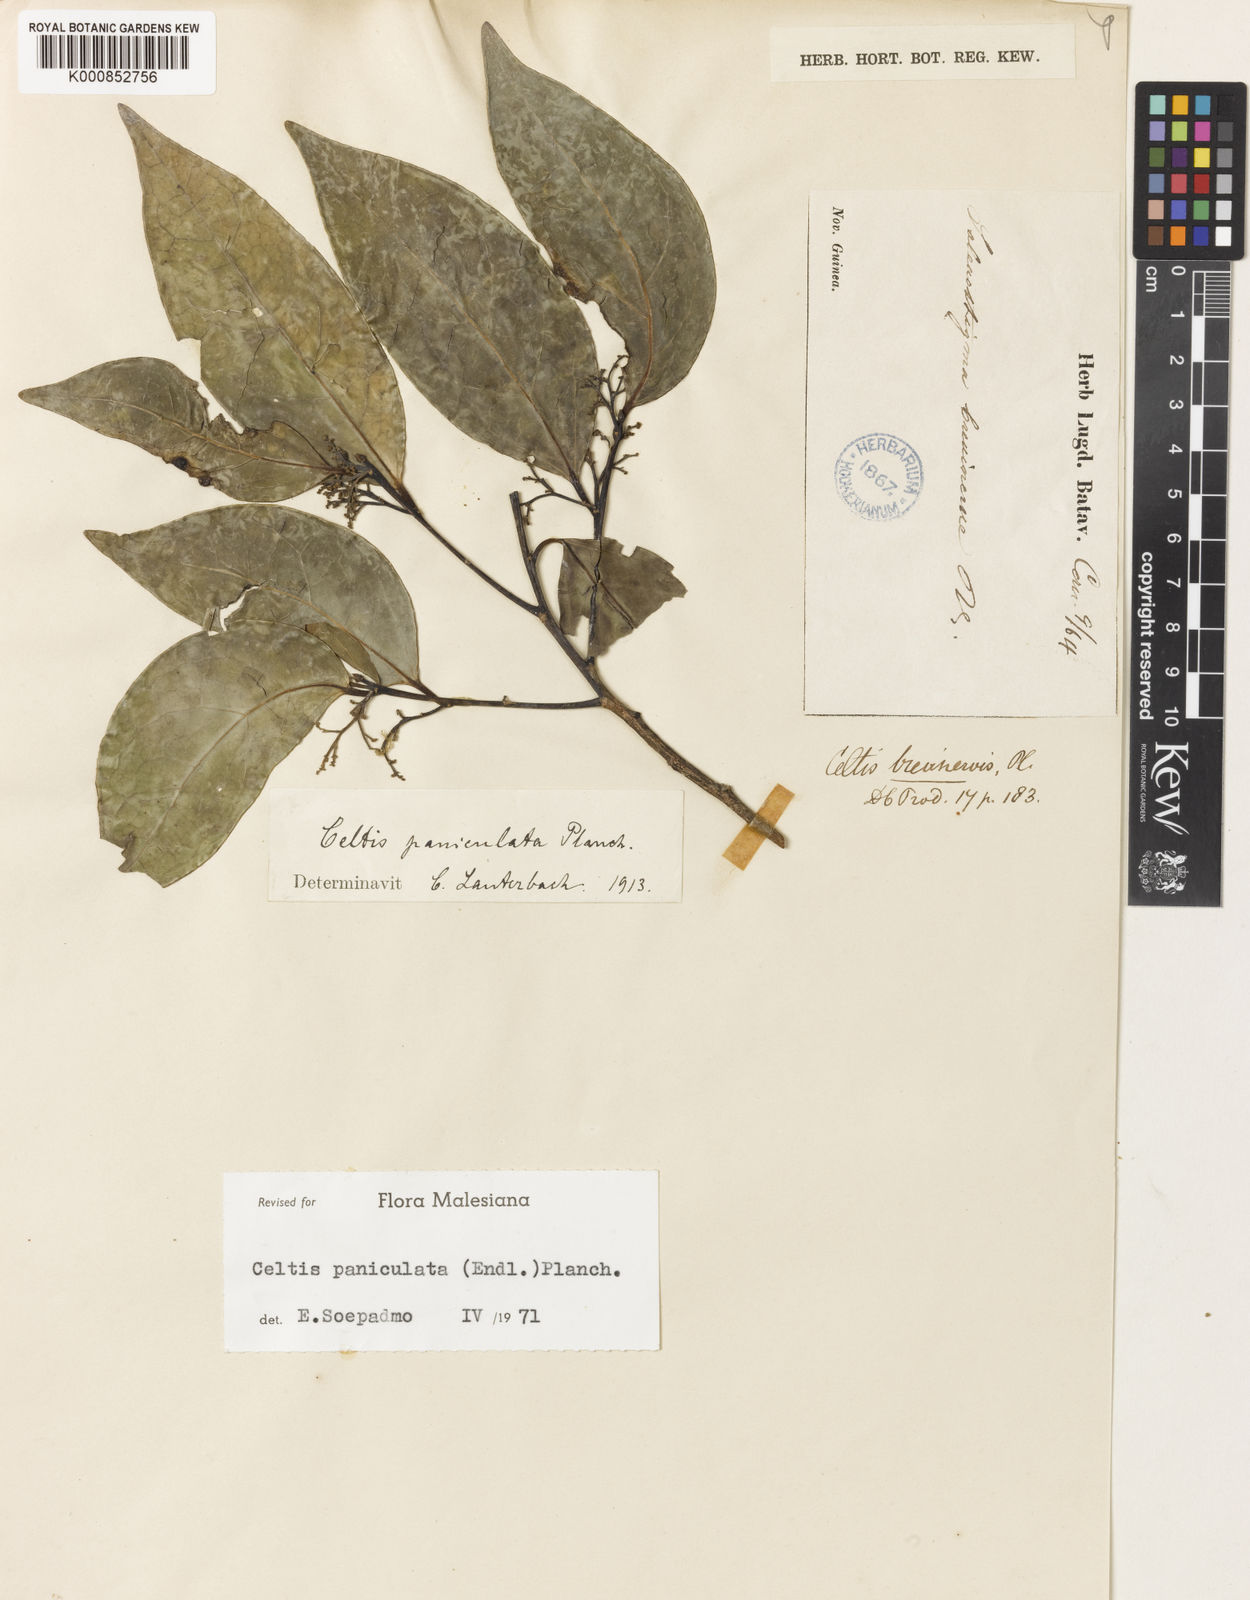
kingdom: Plantae
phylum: Tracheophyta
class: Magnoliopsida
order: Rosales
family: Cannabaceae
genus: Celtis
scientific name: Celtis paniculata
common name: Silky celtis
